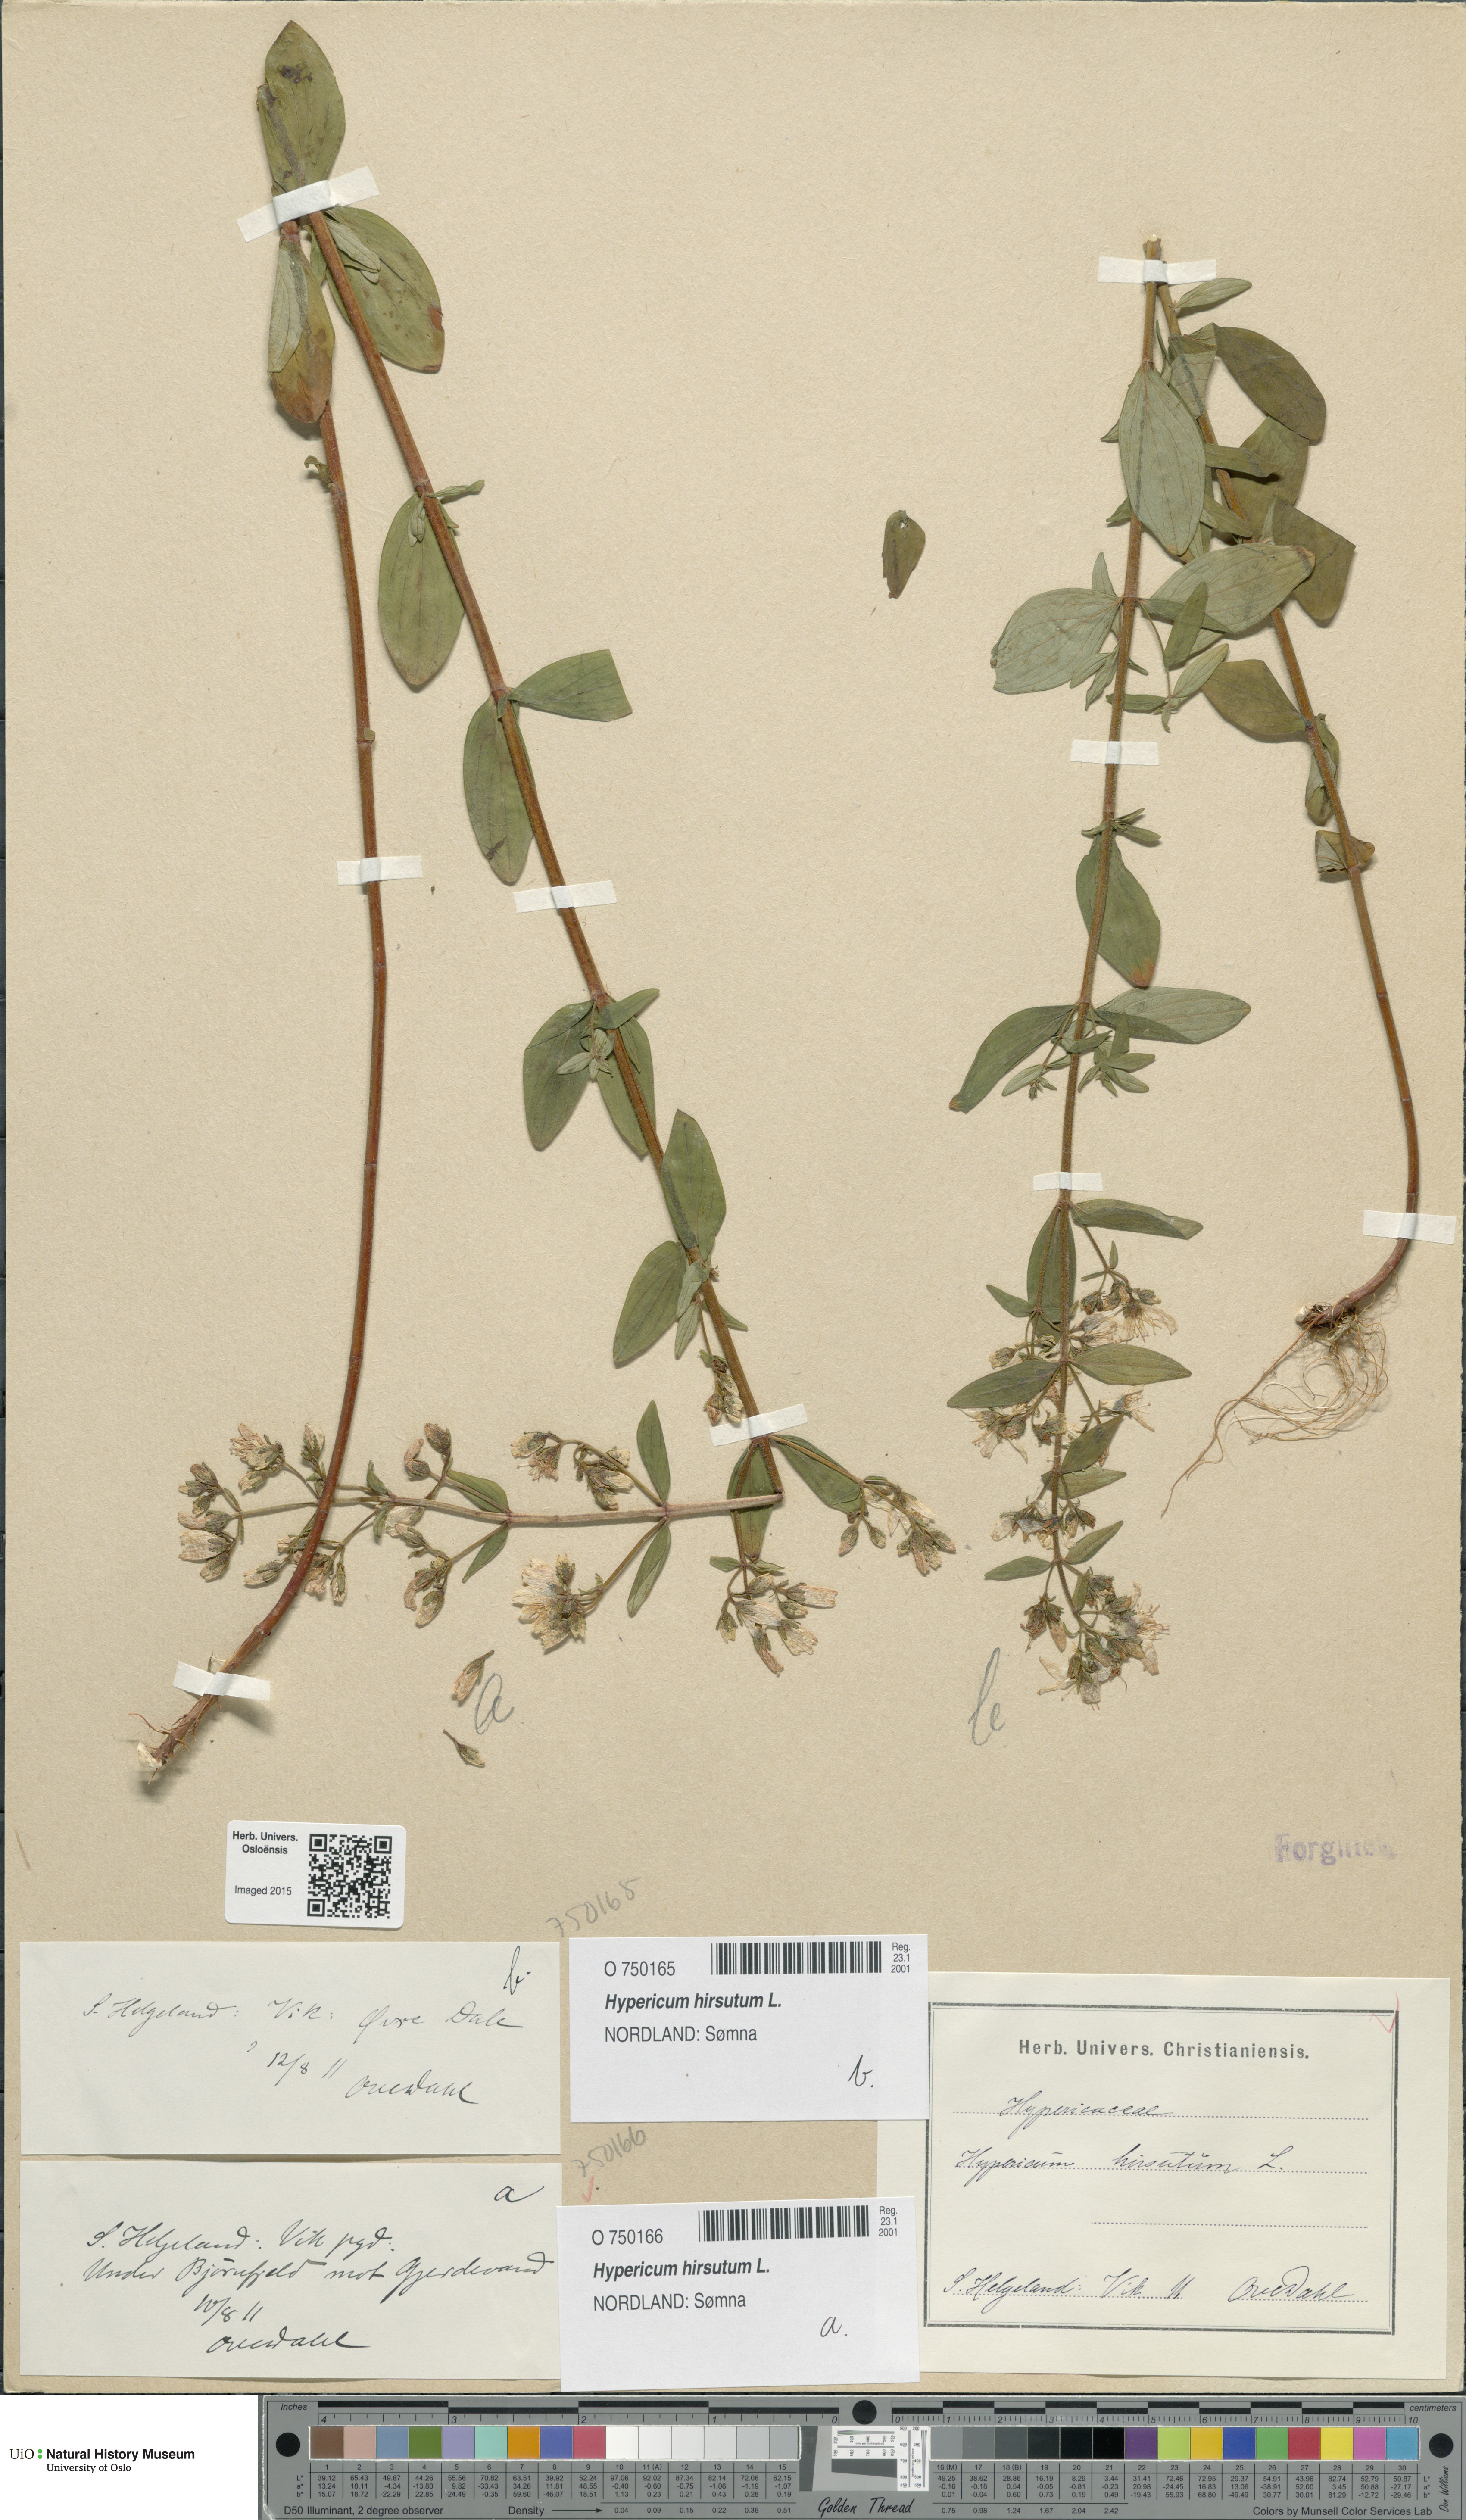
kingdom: Plantae
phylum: Tracheophyta
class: Magnoliopsida
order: Malpighiales
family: Hypericaceae
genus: Hypericum
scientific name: Hypericum hirsutum
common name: Hairy st. john's-wort
